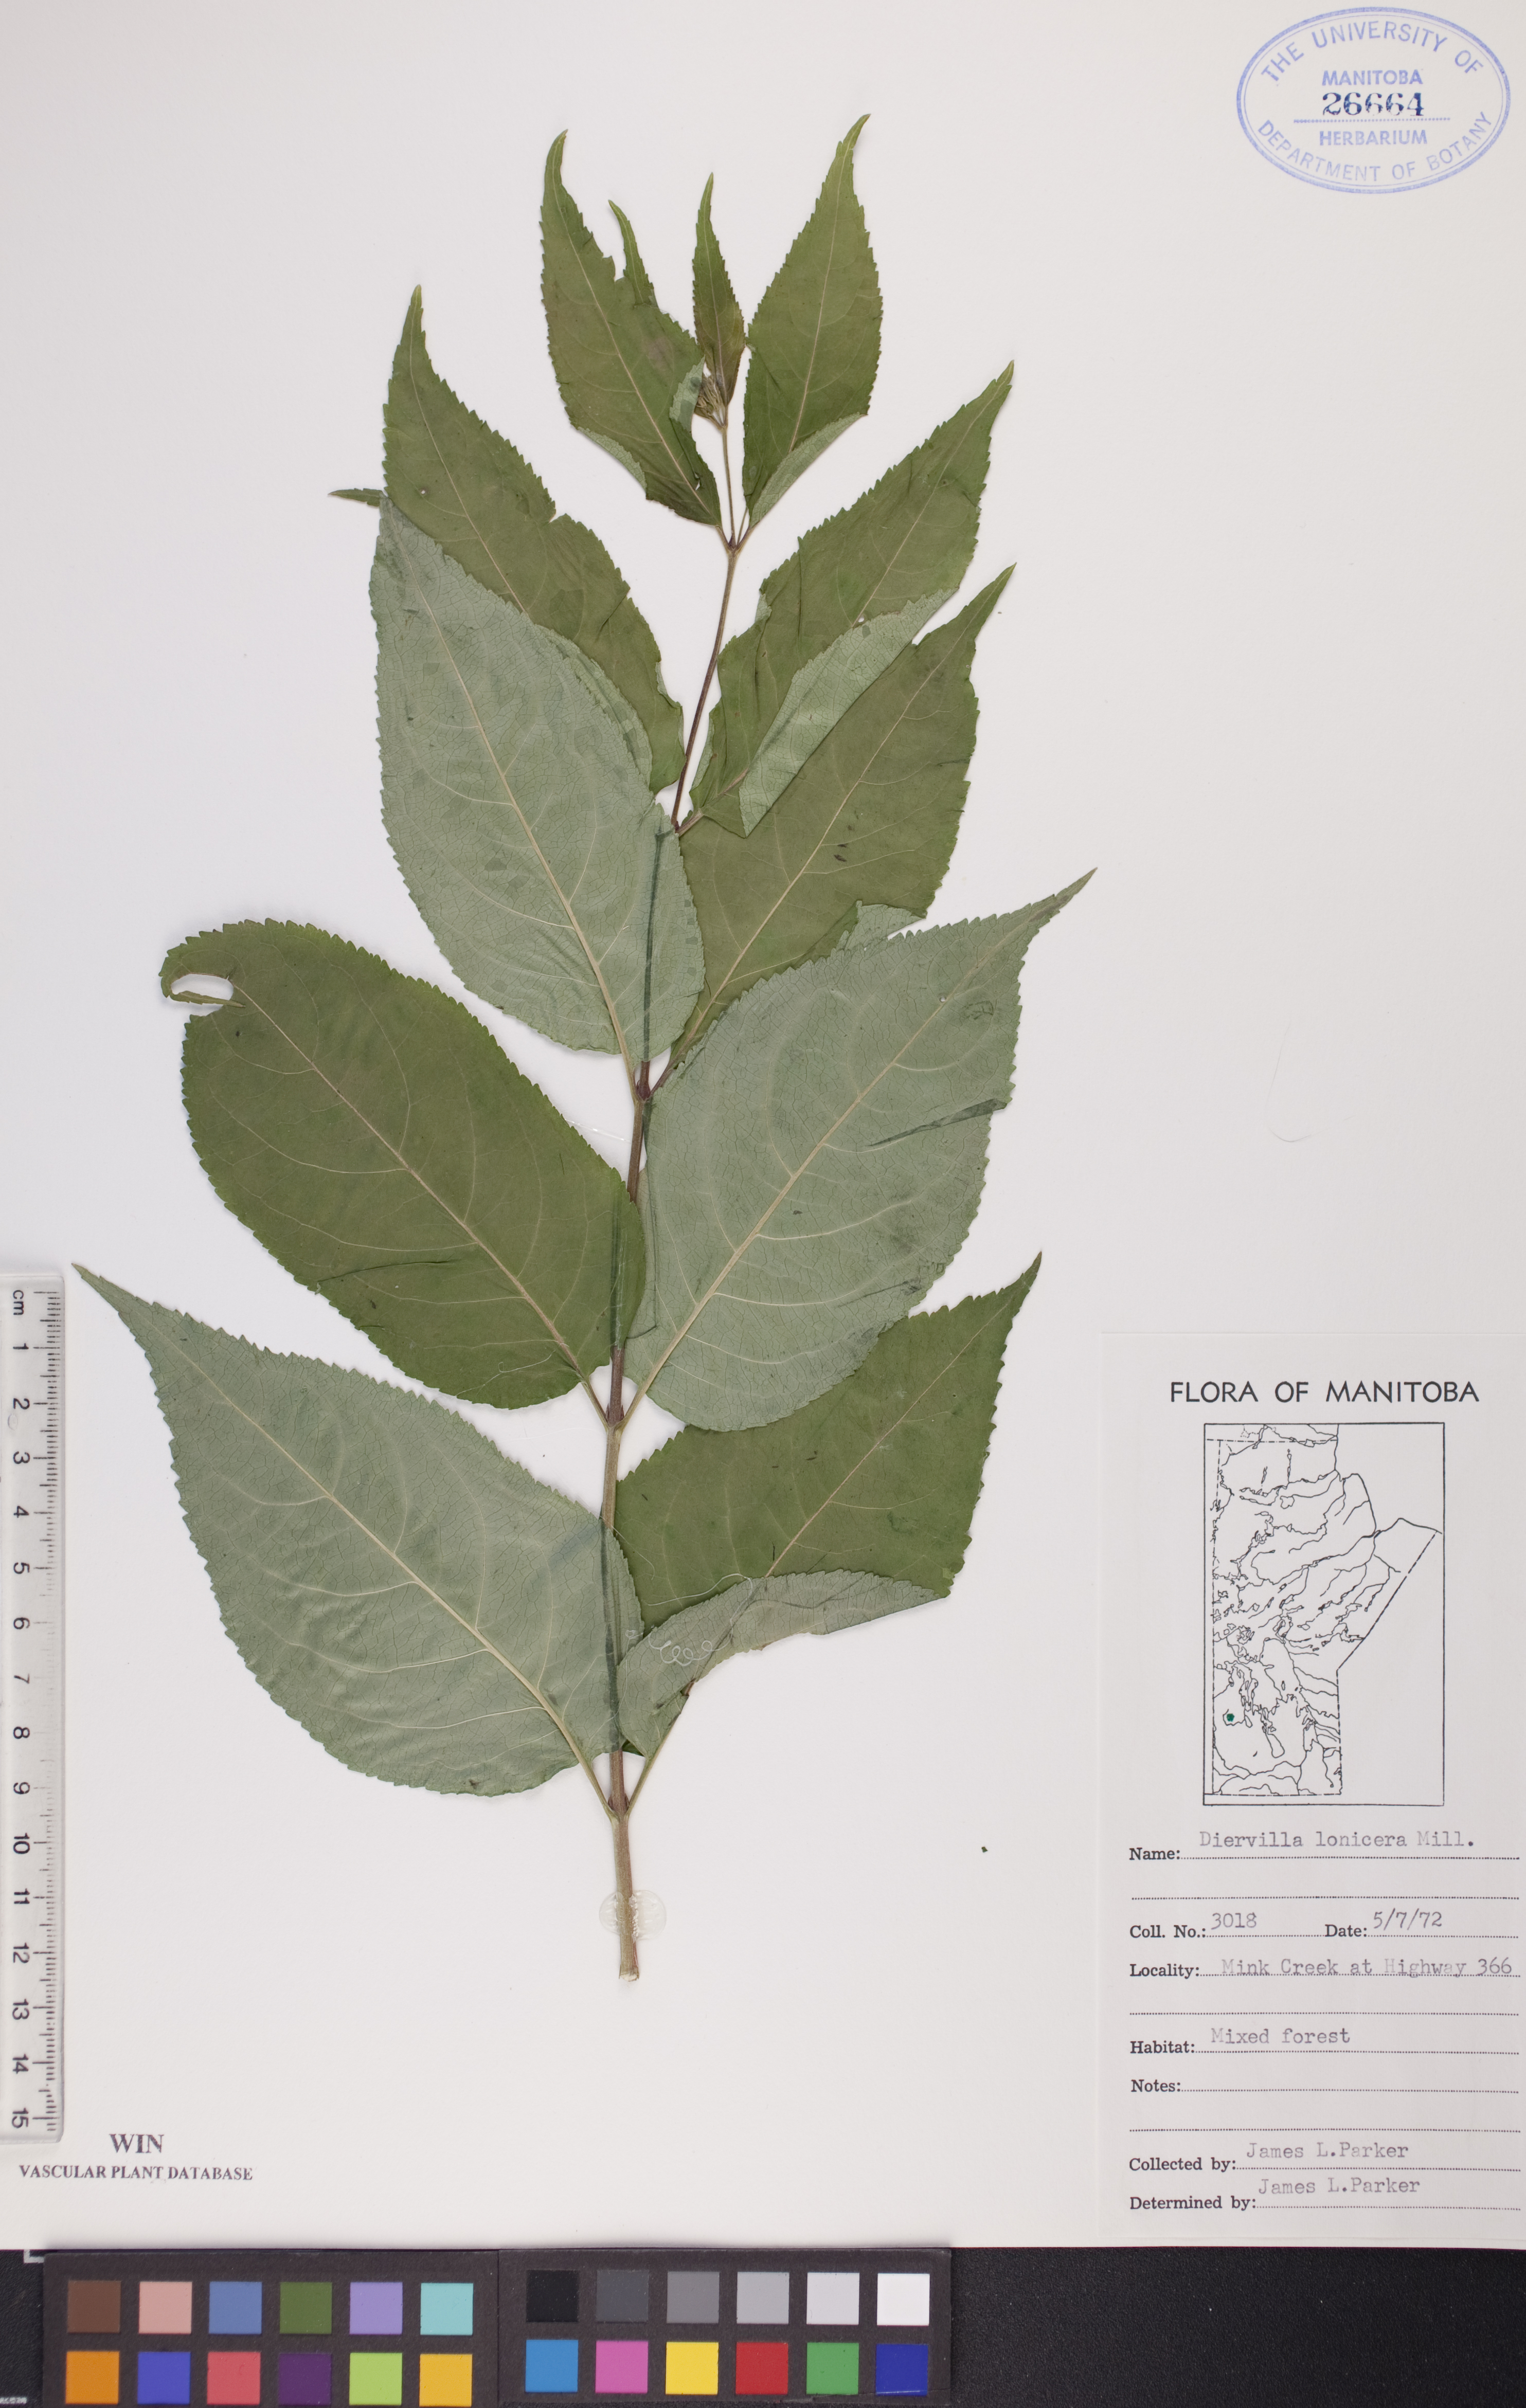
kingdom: Plantae
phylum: Tracheophyta
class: Magnoliopsida
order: Dipsacales
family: Caprifoliaceae
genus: Diervilla
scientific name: Diervilla lonicera
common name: Bush-honeysuckle
